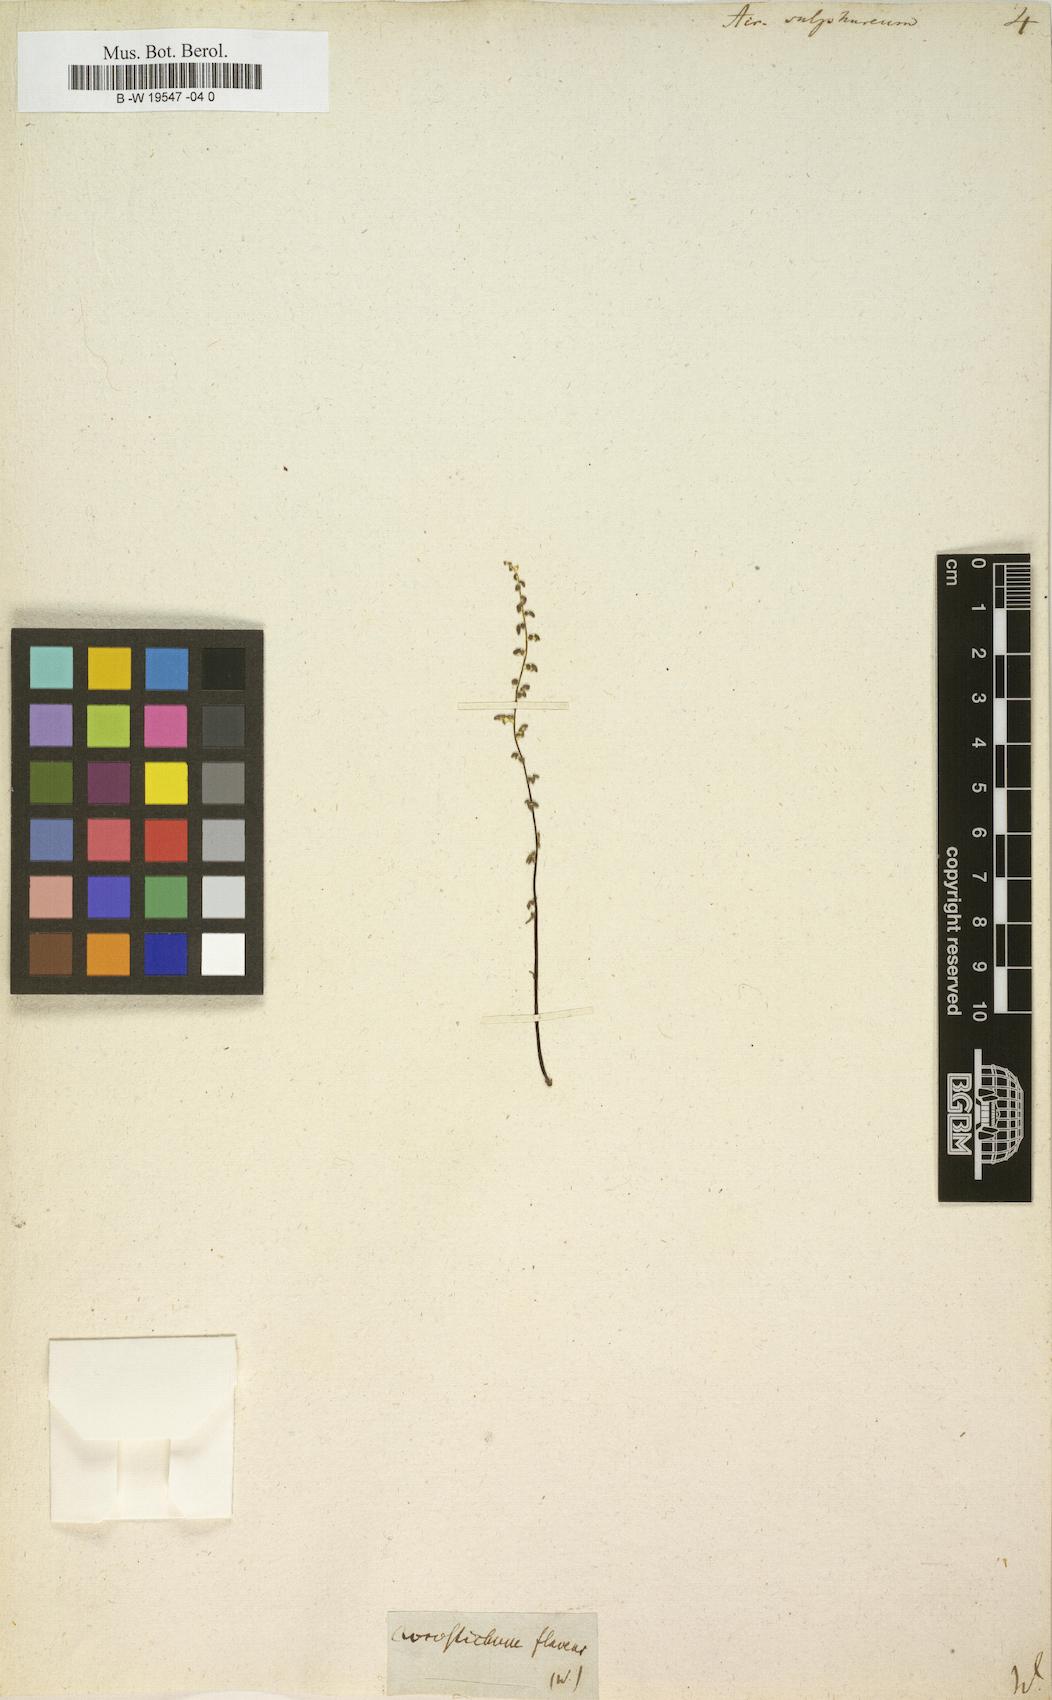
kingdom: Plantae
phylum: Tracheophyta
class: Polypodiopsida
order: Polypodiales
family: Pteridaceae
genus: Pityrogramma
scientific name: Pityrogramma sulphurea
